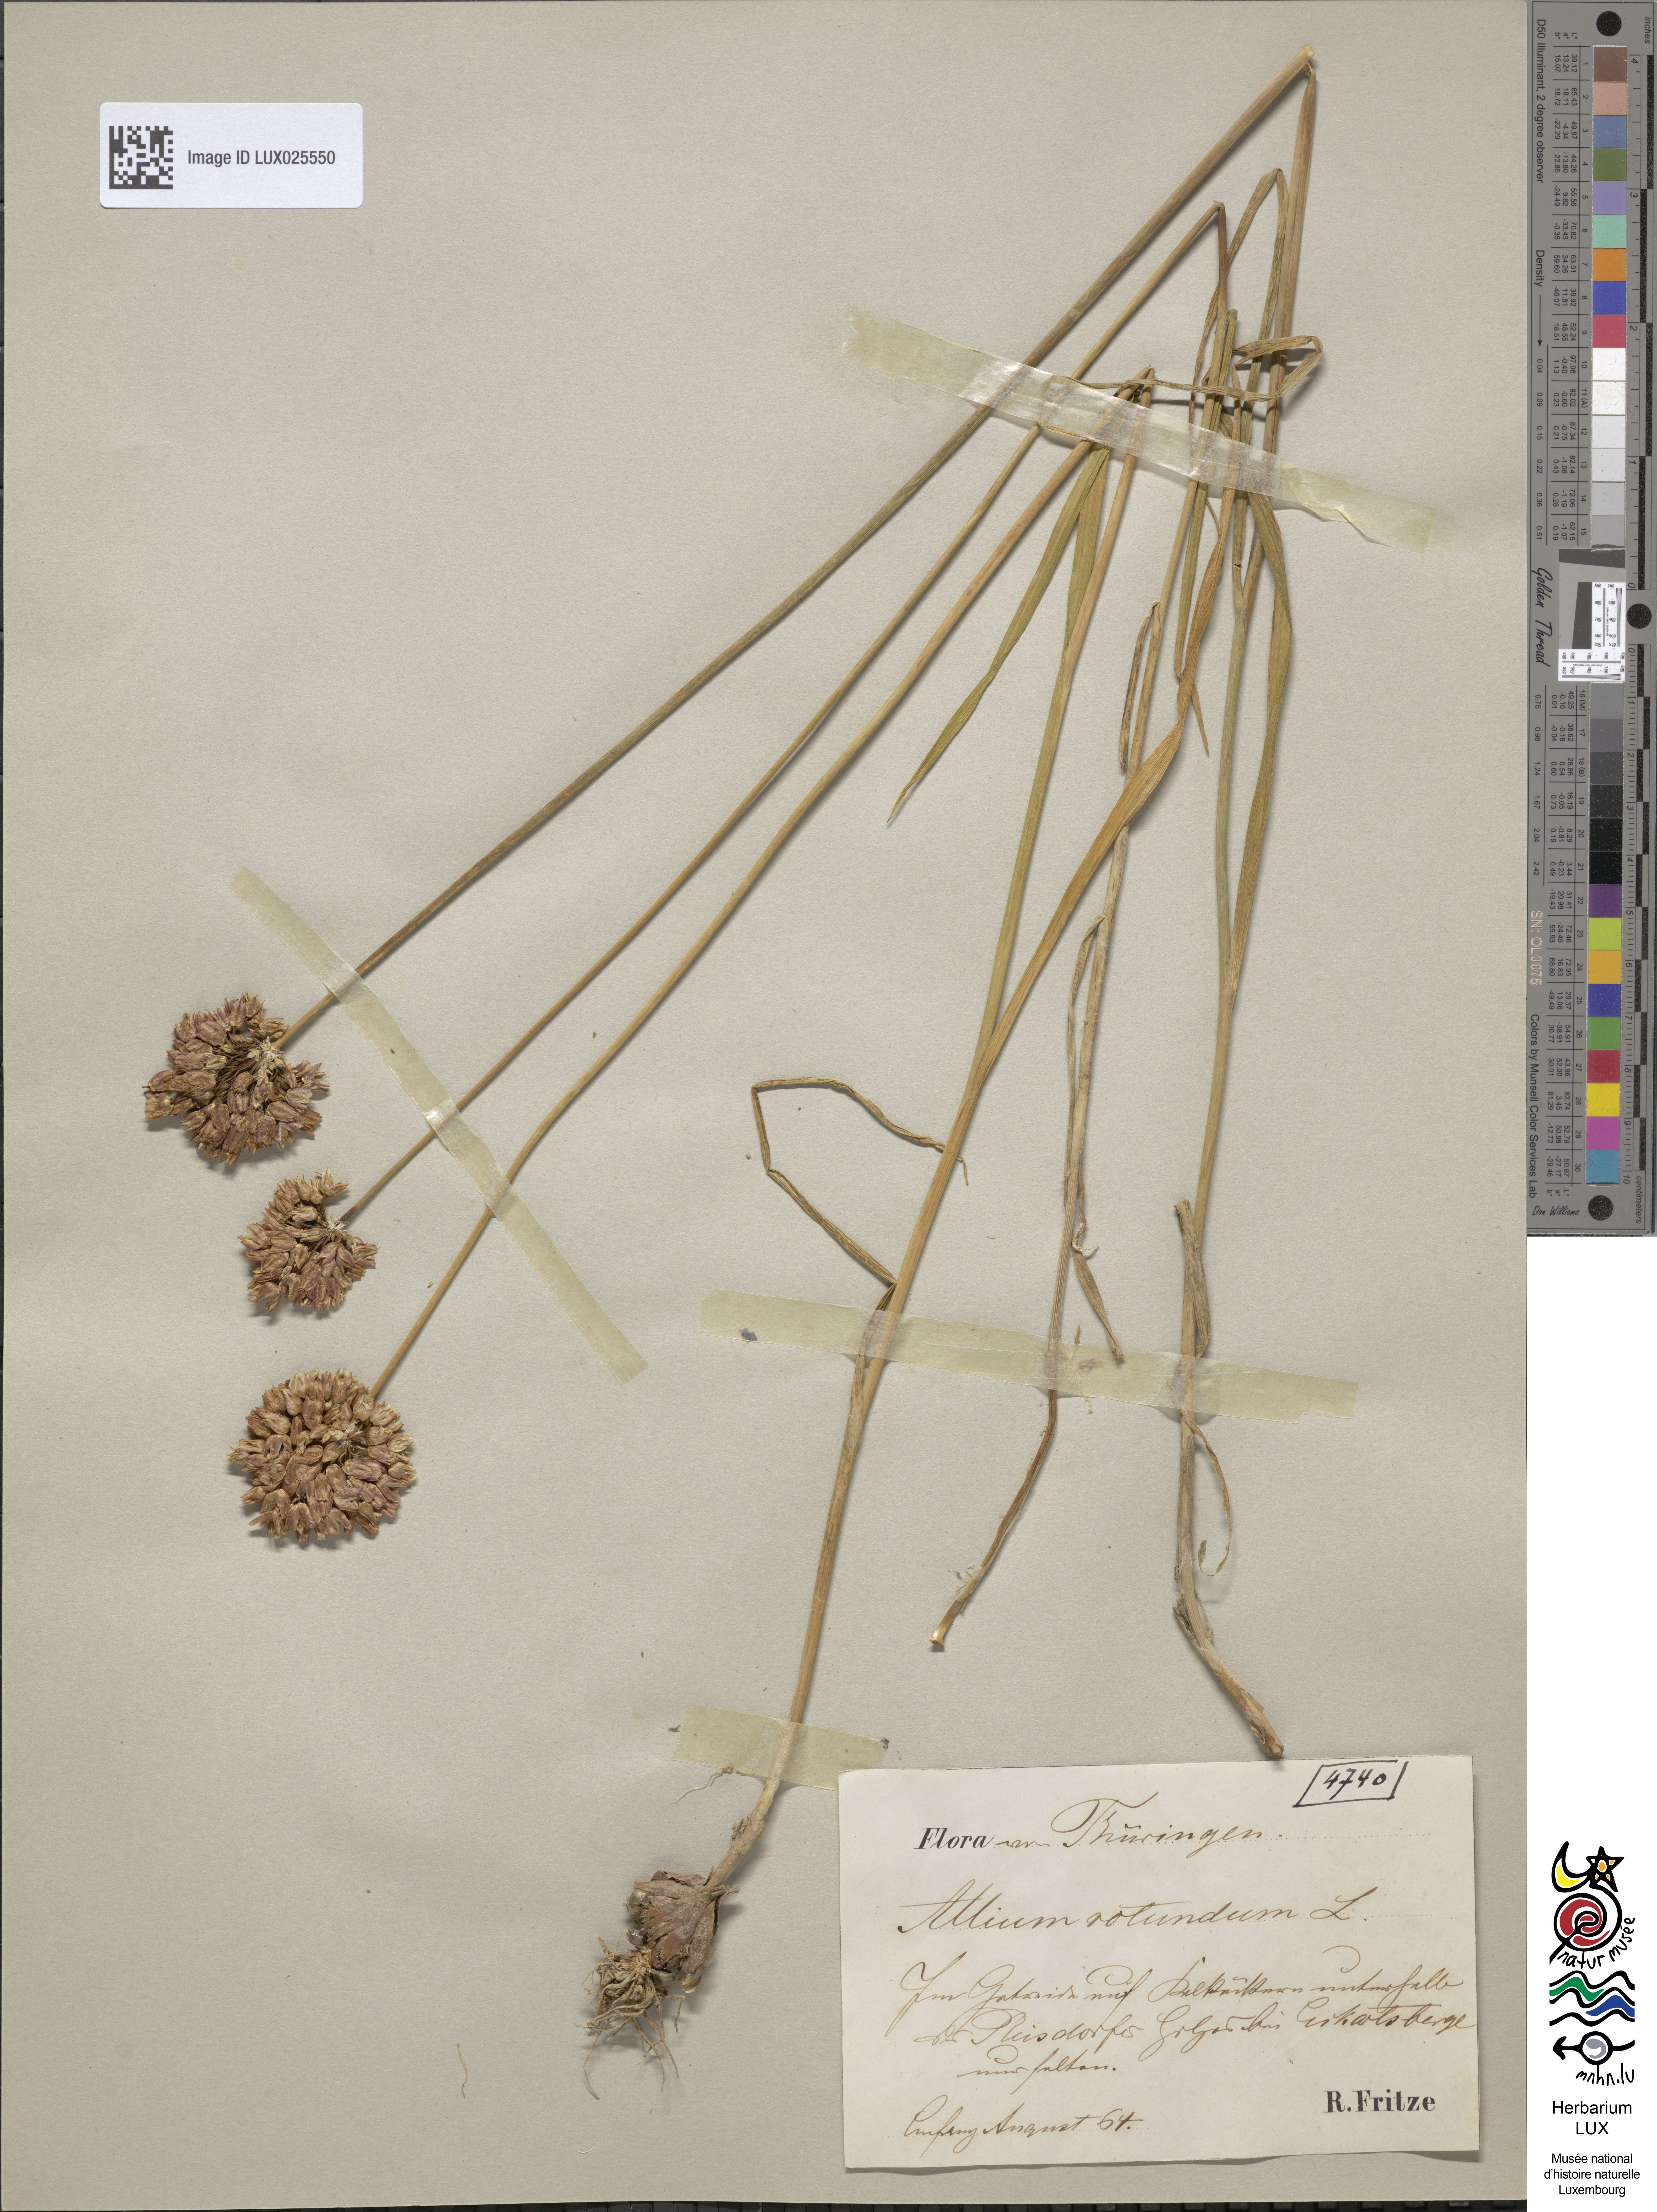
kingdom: Plantae
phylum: Tracheophyta
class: Liliopsida
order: Asparagales
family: Amaryllidaceae
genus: Allium
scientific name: Allium rotundum
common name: Sand leek
